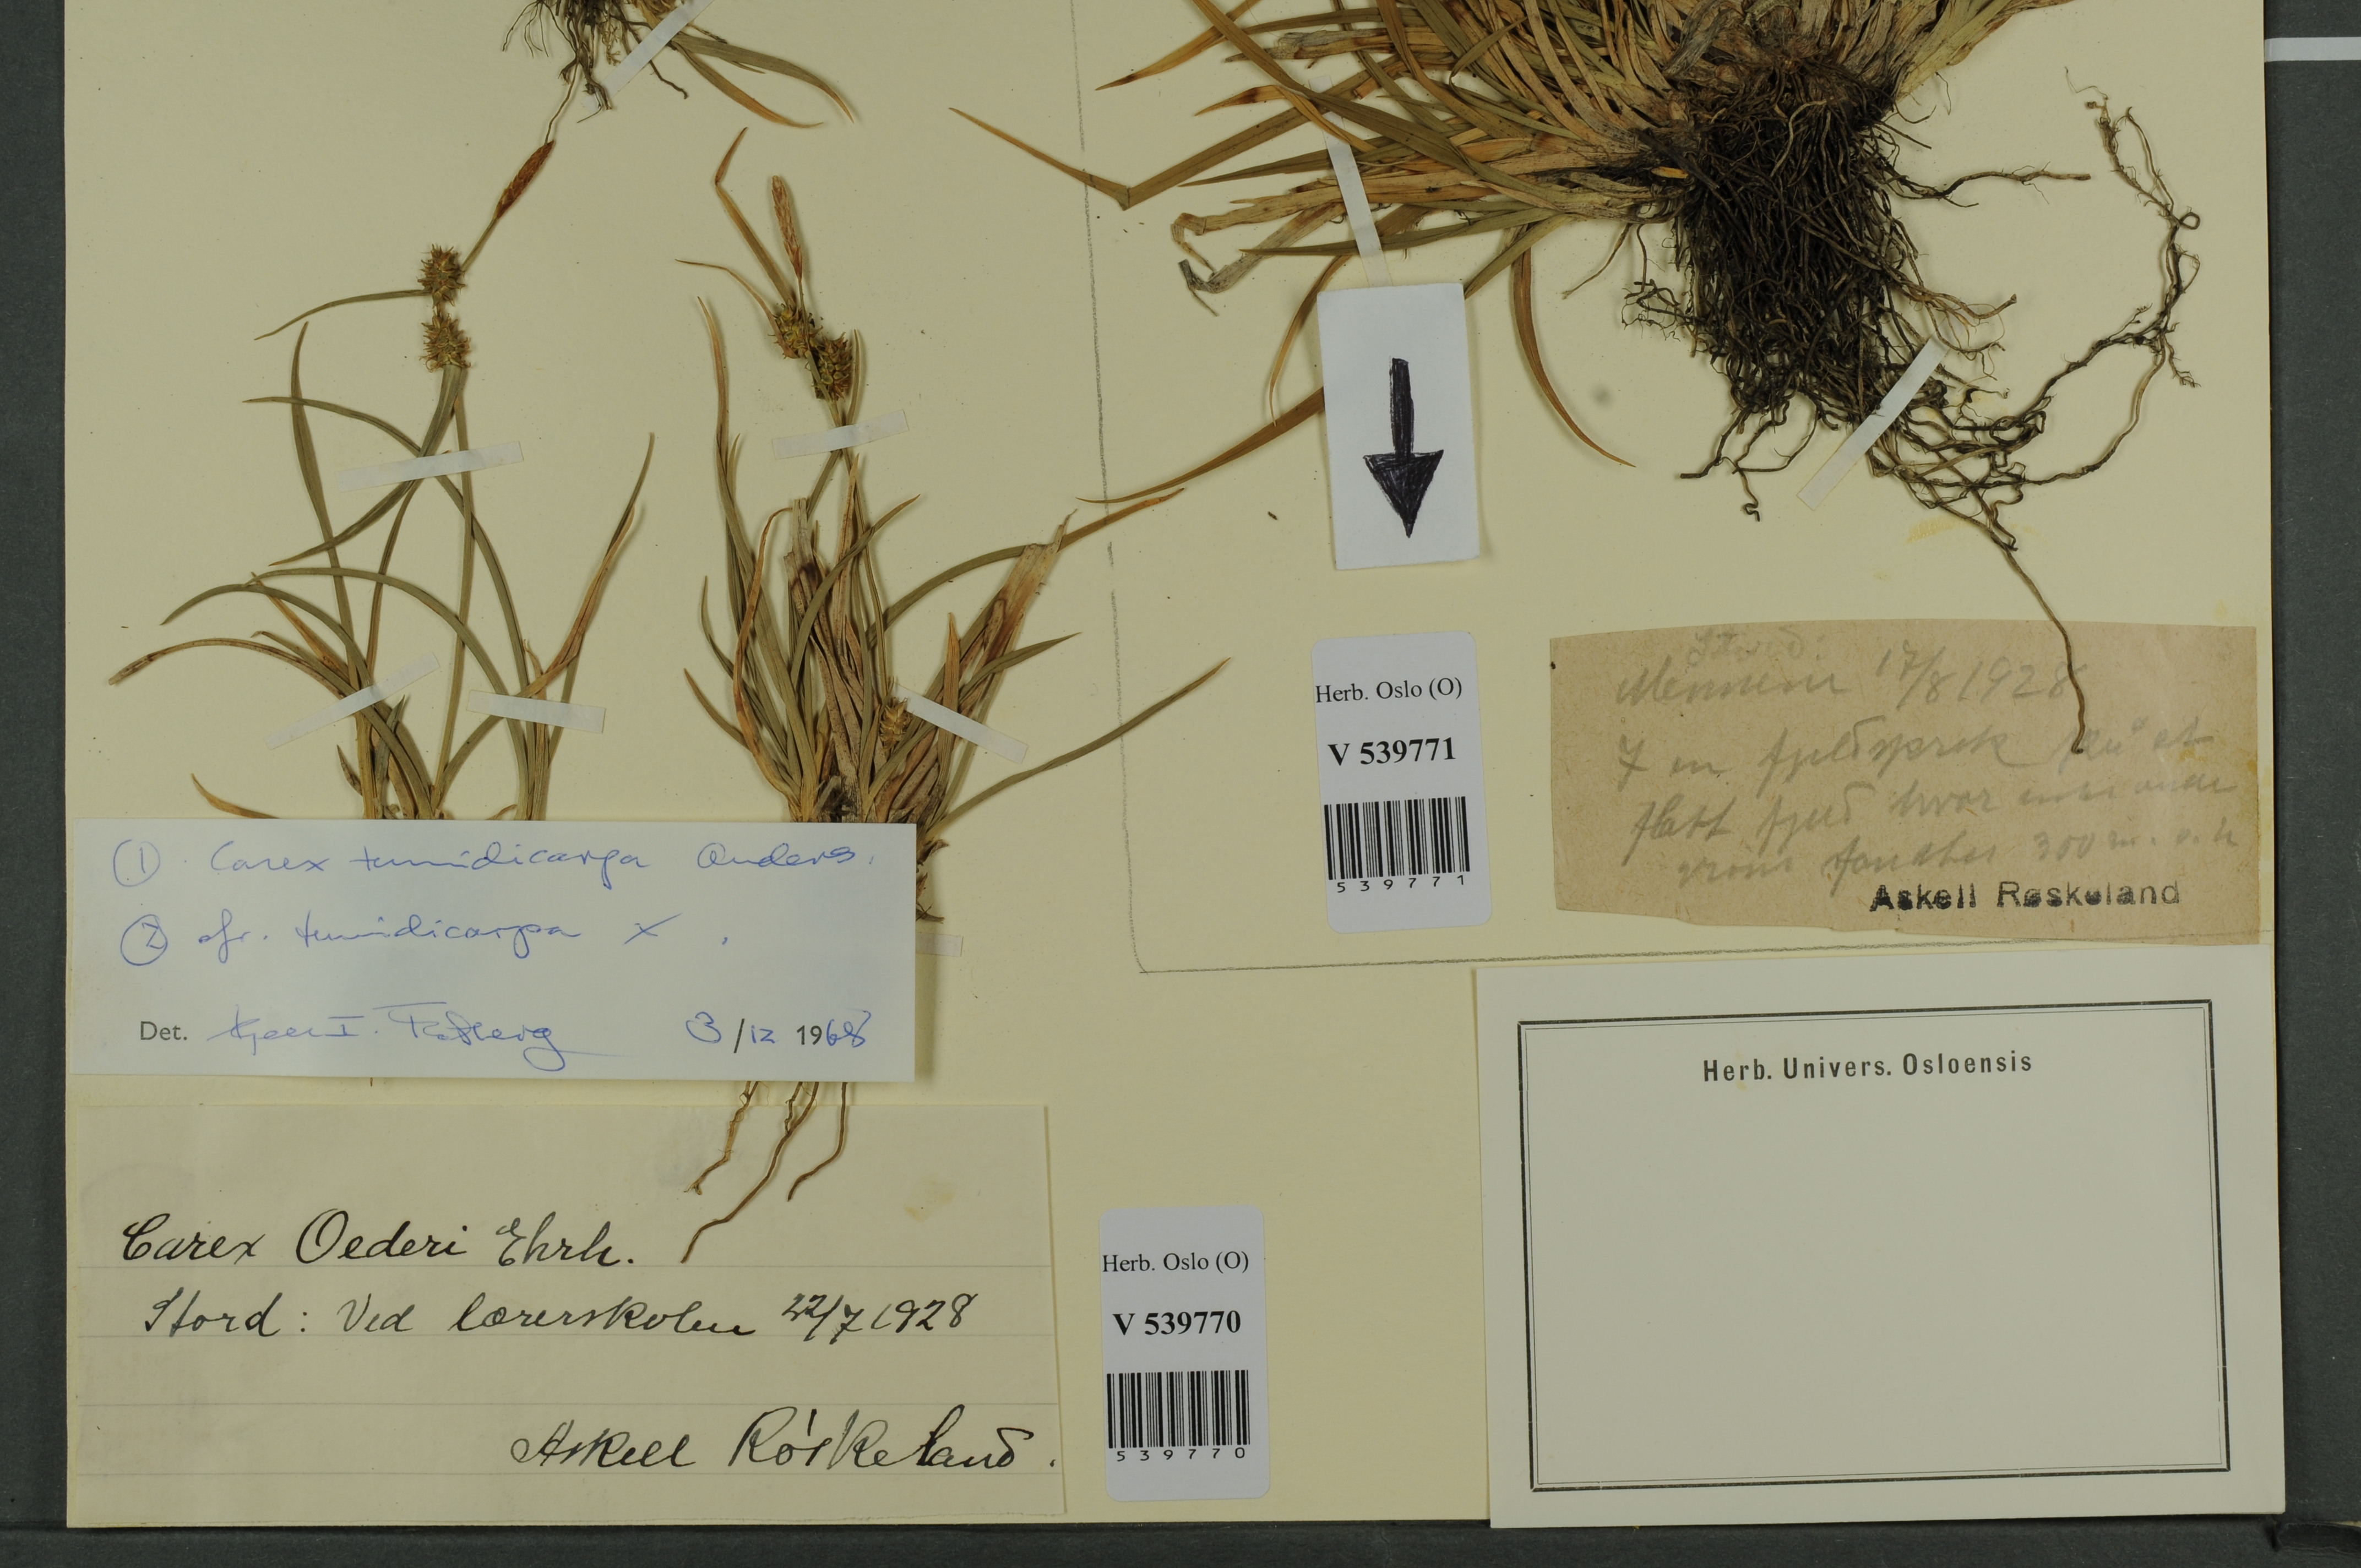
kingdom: Plantae
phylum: Tracheophyta
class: Liliopsida
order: Poales
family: Cyperaceae
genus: Carex
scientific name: Carex demissa
